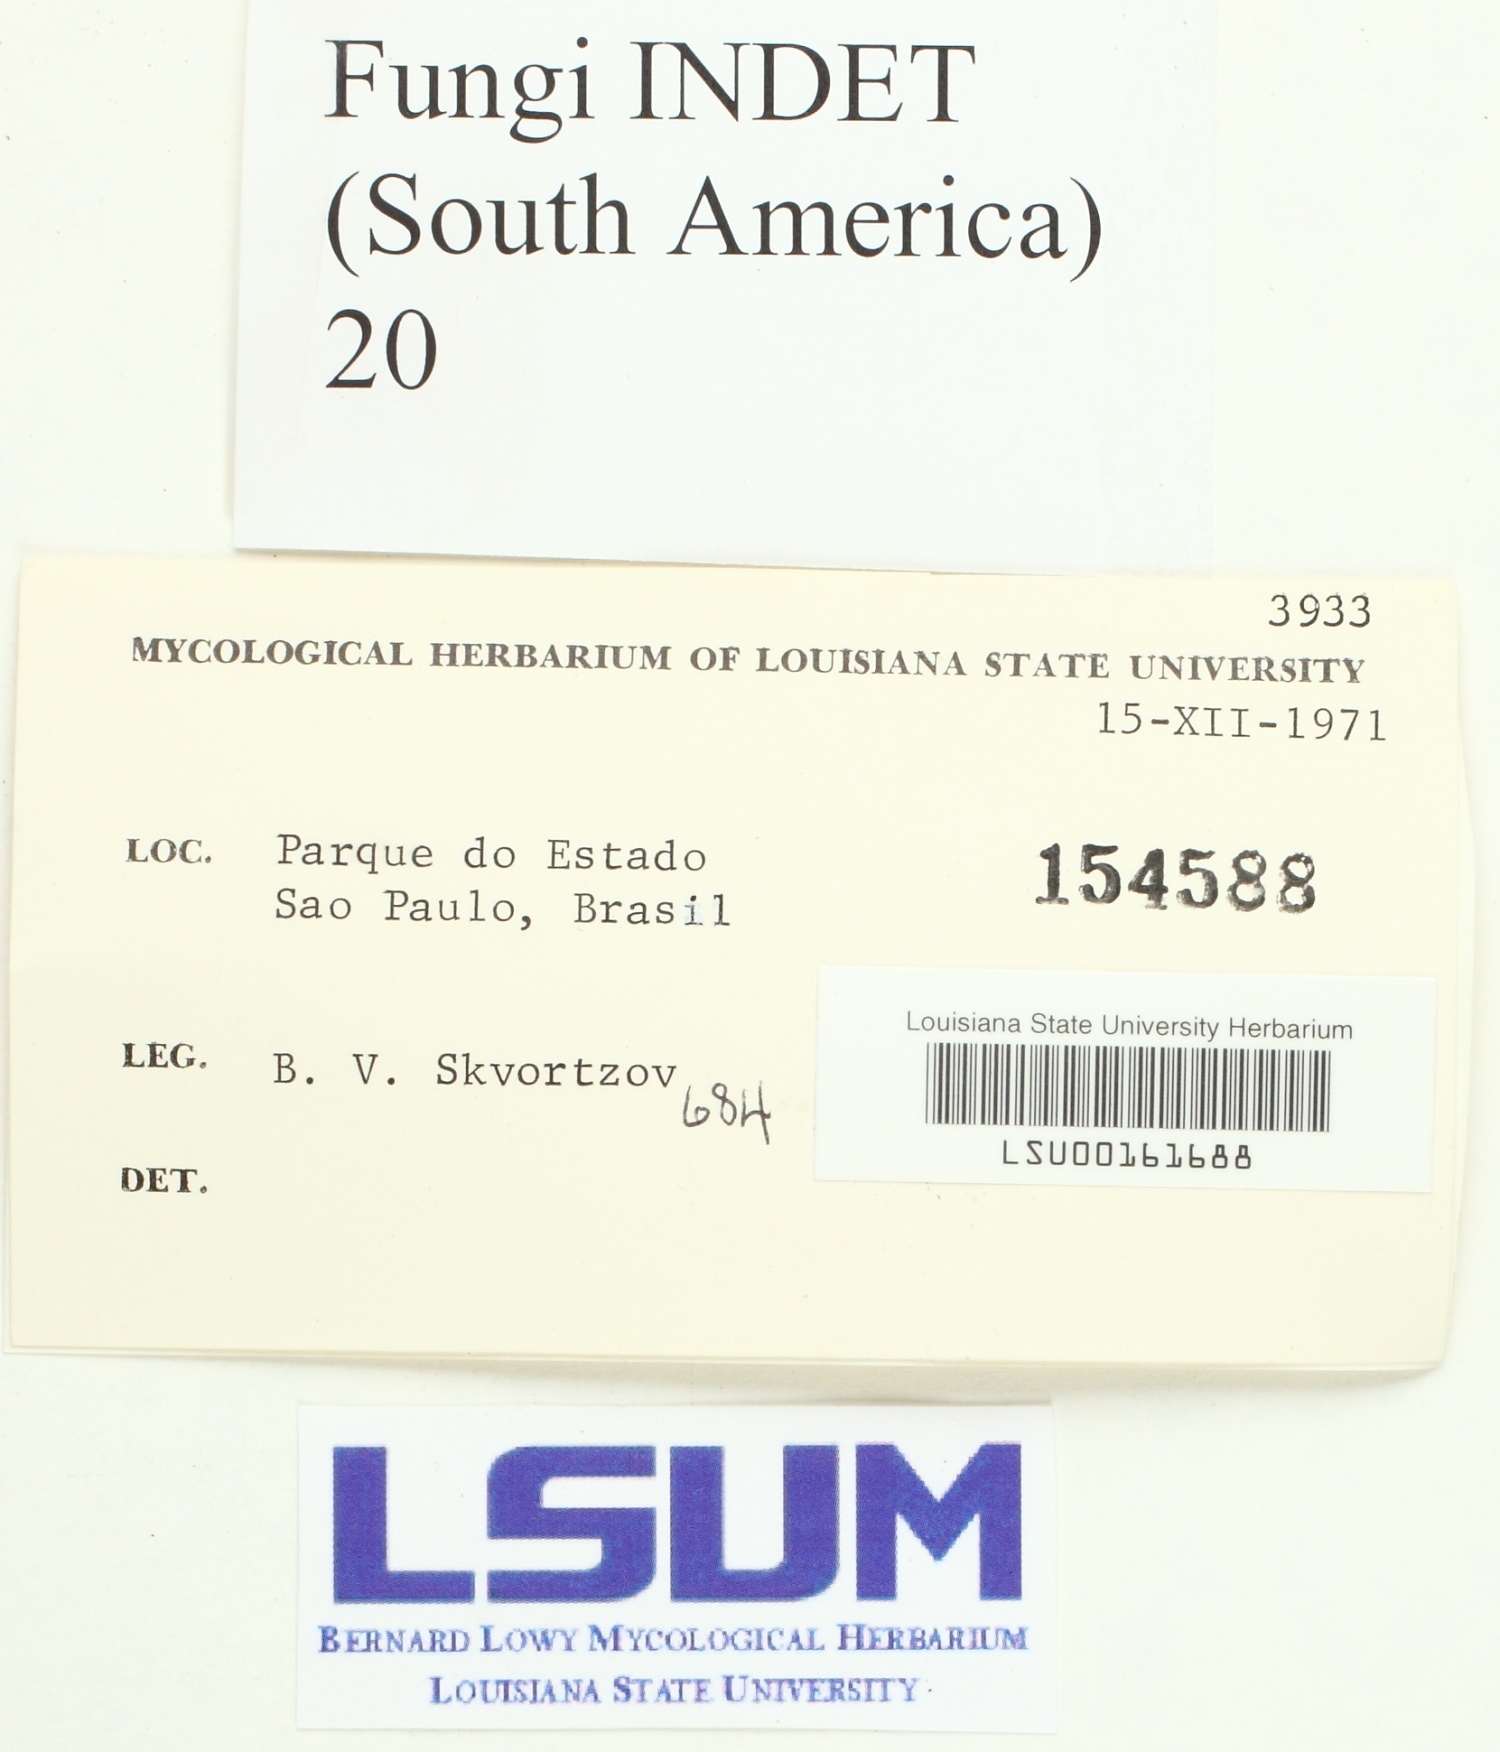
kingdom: Fungi
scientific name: Fungi
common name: Fungi
